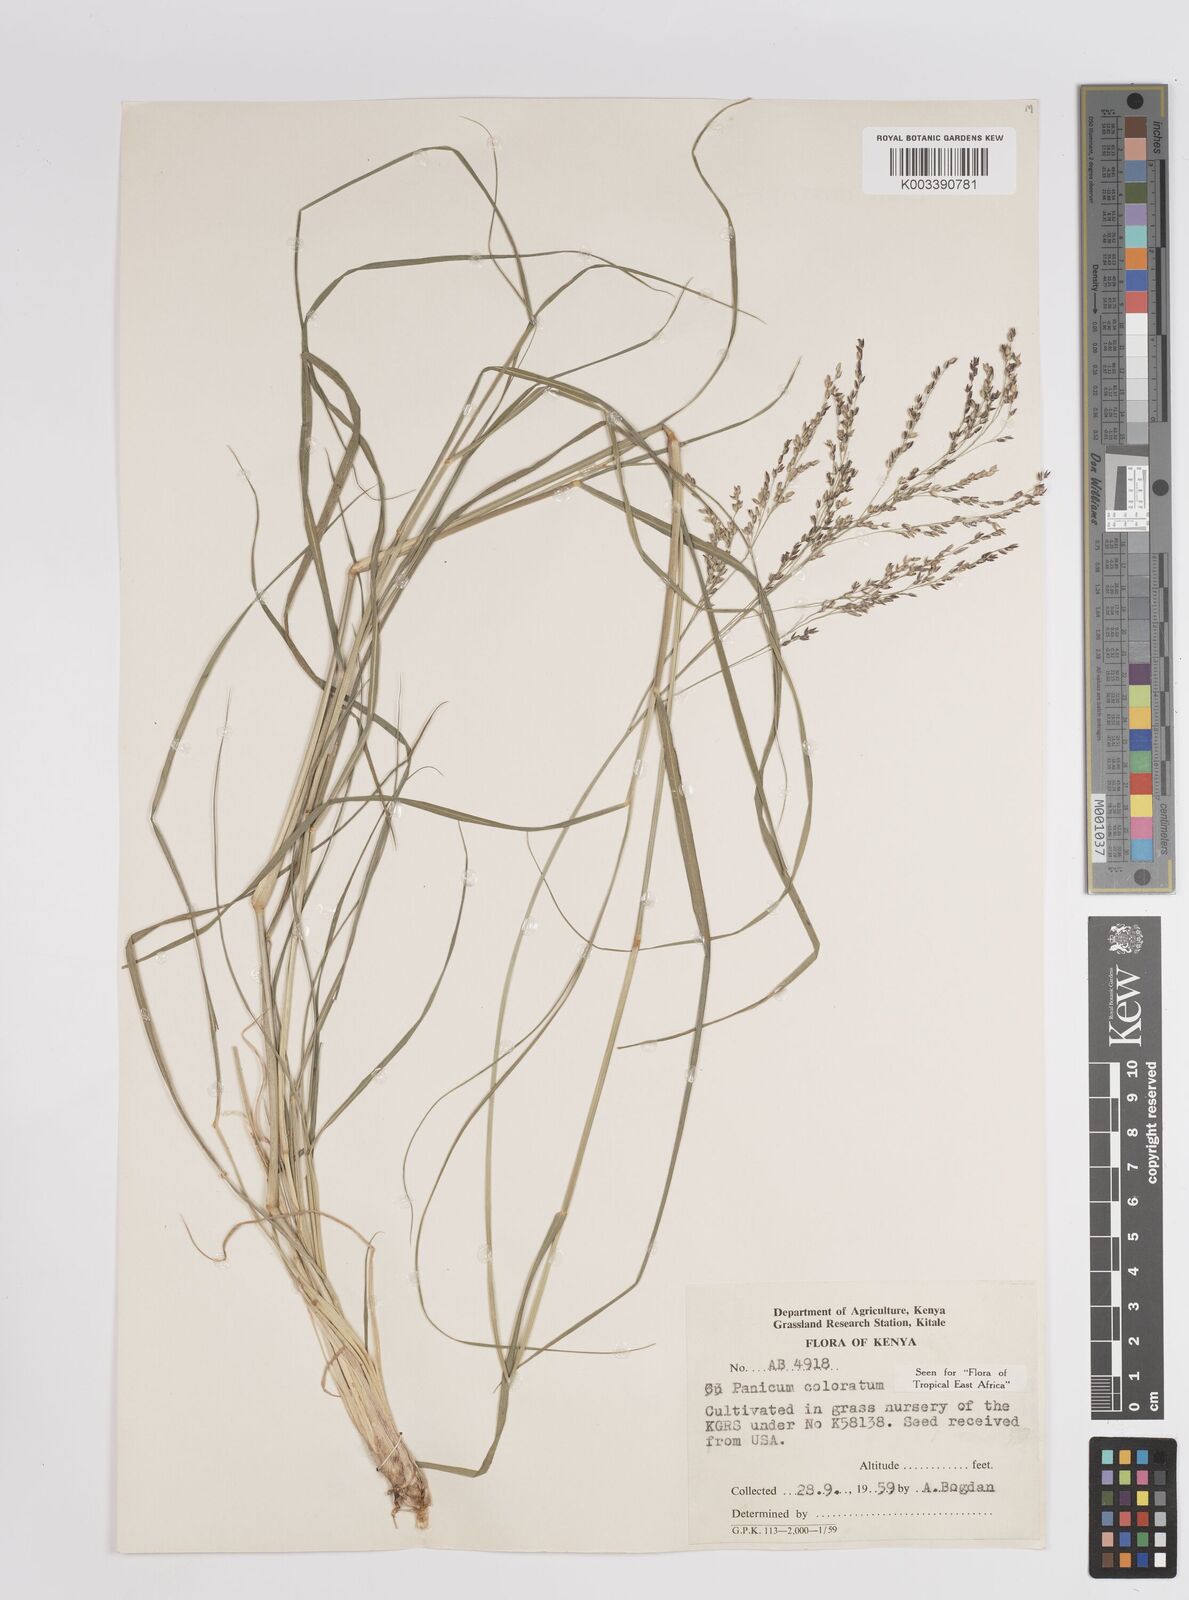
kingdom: Plantae
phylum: Tracheophyta
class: Liliopsida
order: Poales
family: Poaceae
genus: Panicum
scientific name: Panicum coloratum
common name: Kleingrass
